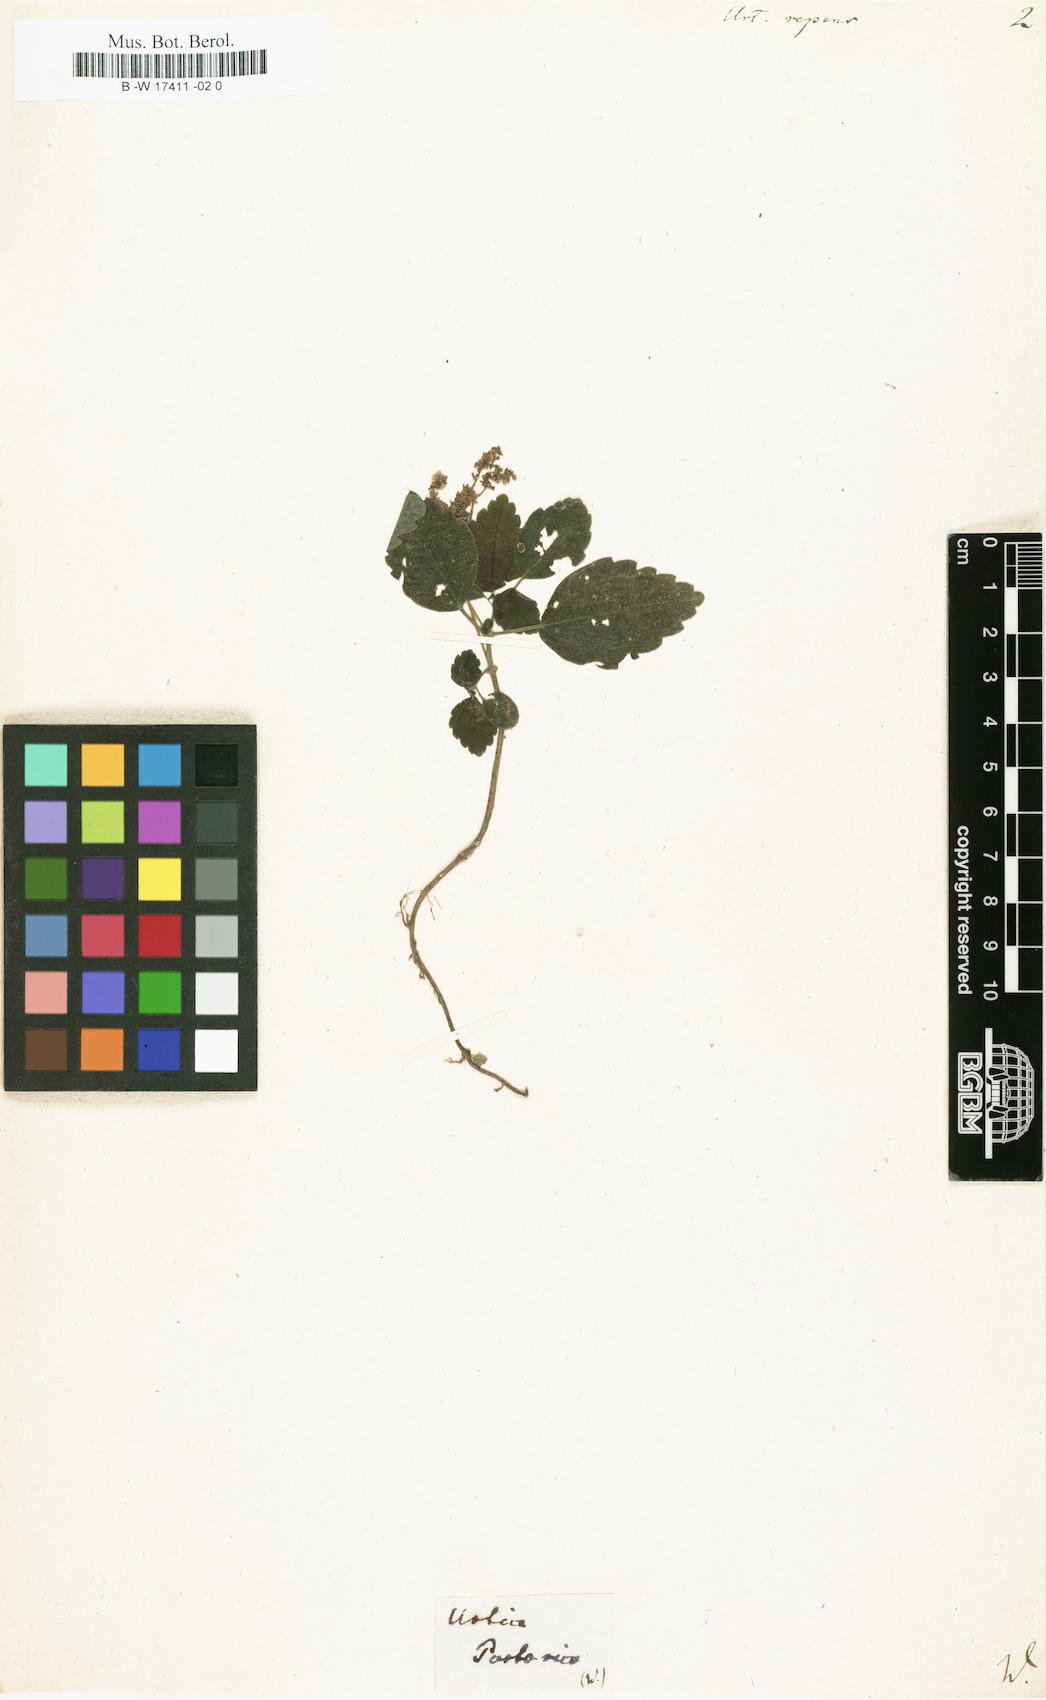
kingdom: Plantae
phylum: Tracheophyta
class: Magnoliopsida
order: Rosales
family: Urticaceae
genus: Pilea
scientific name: Pilea inaequalis
